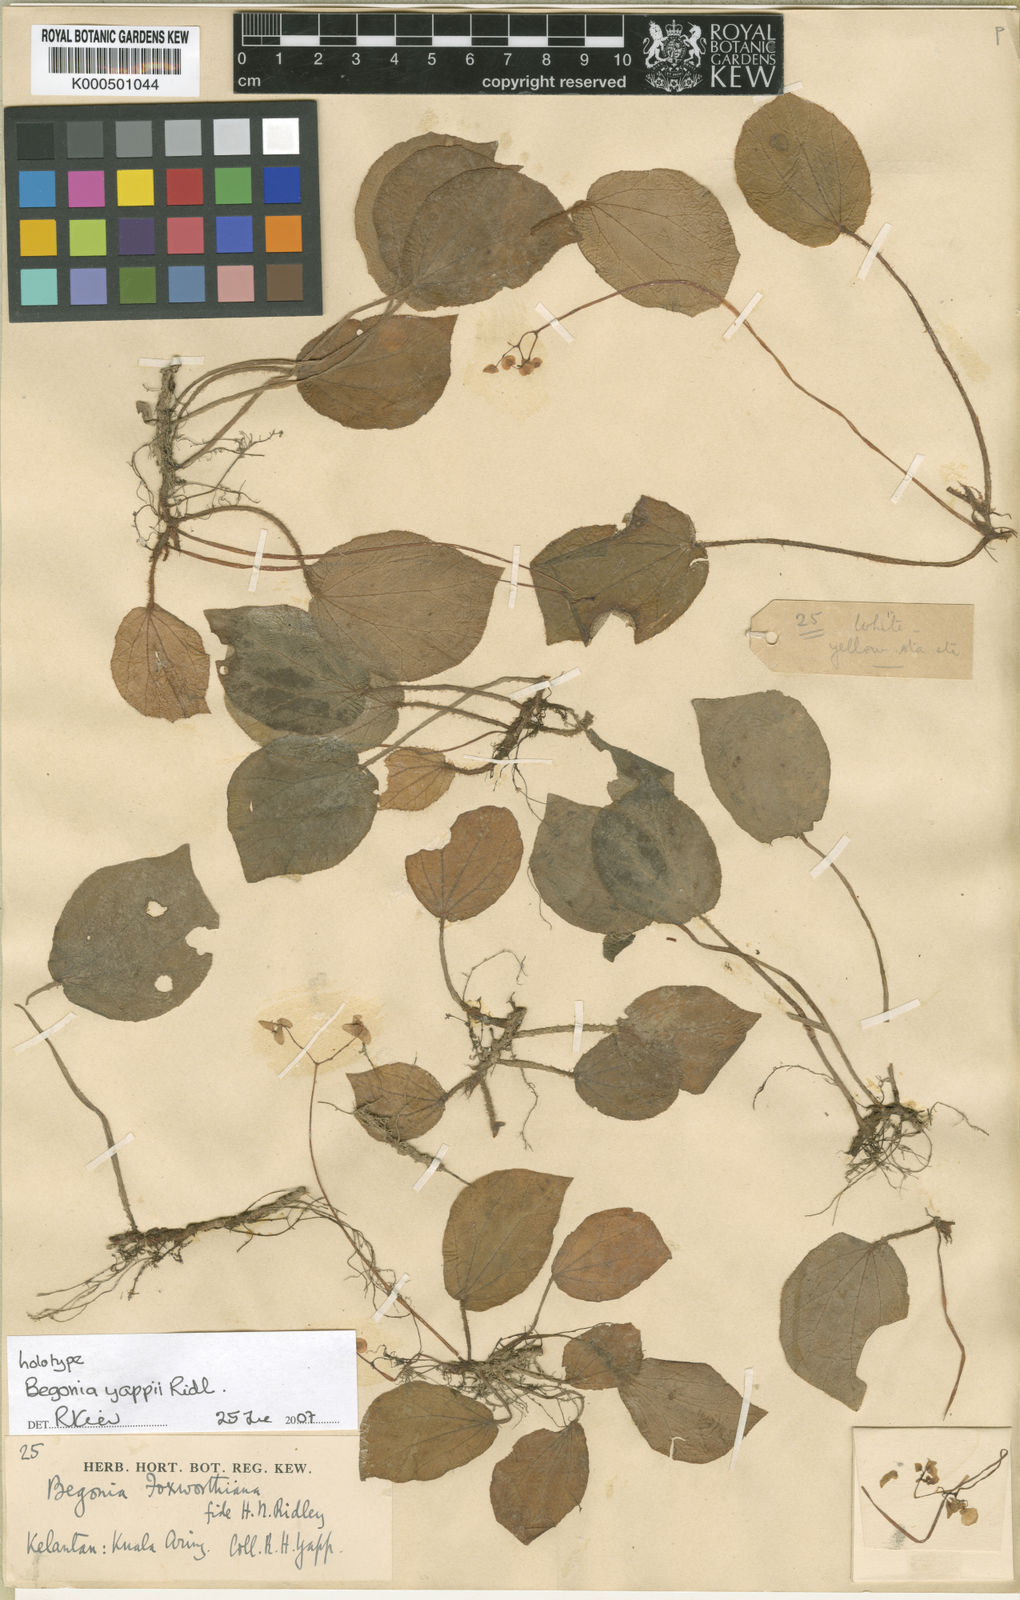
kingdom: Plantae
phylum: Tracheophyta
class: Magnoliopsida
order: Cucurbitales
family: Begoniaceae
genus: Begonia
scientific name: Begonia yappii
